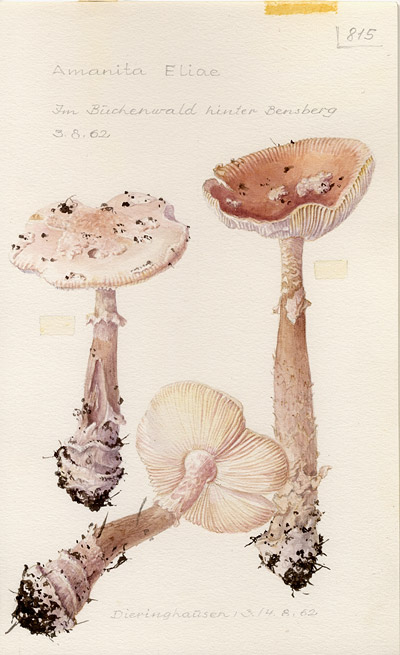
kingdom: Fungi
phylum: Basidiomycota
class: Agaricomycetes
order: Agaricales
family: Amanitaceae
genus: Amanita
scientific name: Amanita eliae
